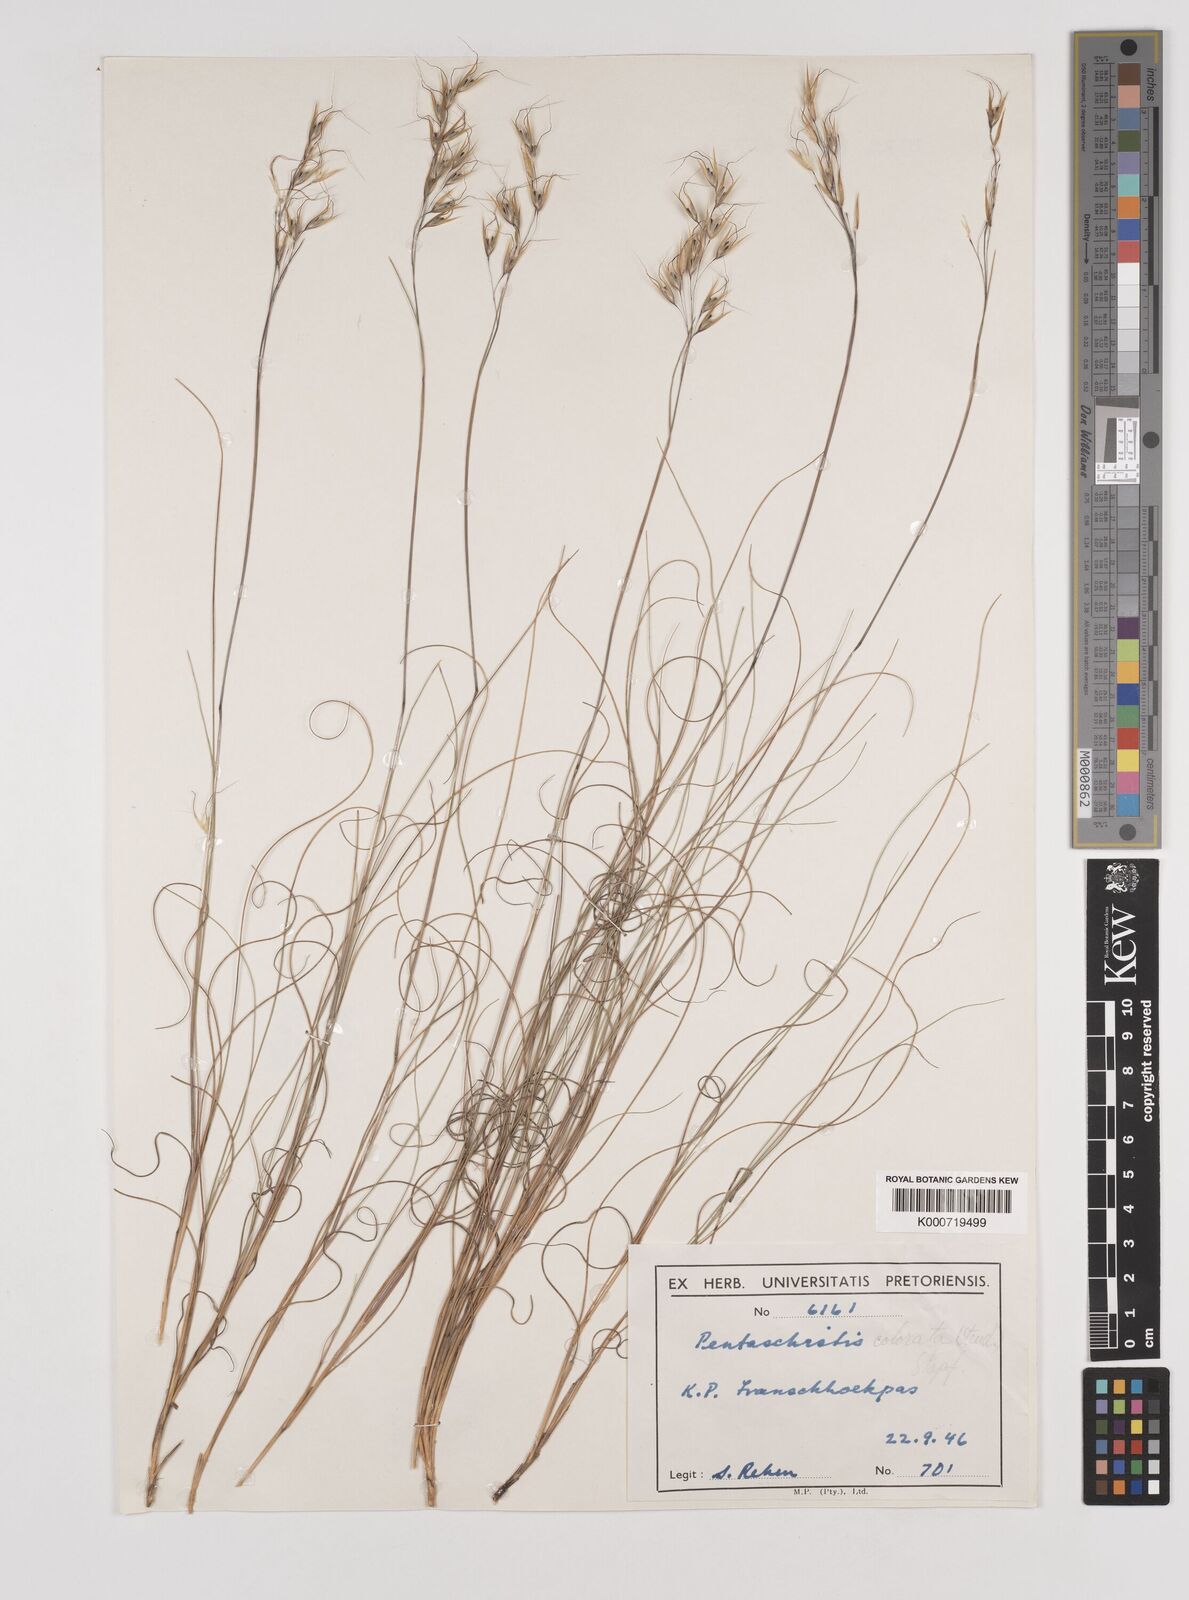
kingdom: Plantae
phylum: Tracheophyta
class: Liliopsida
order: Poales
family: Poaceae
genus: Pentameris
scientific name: Pentameris colorata
